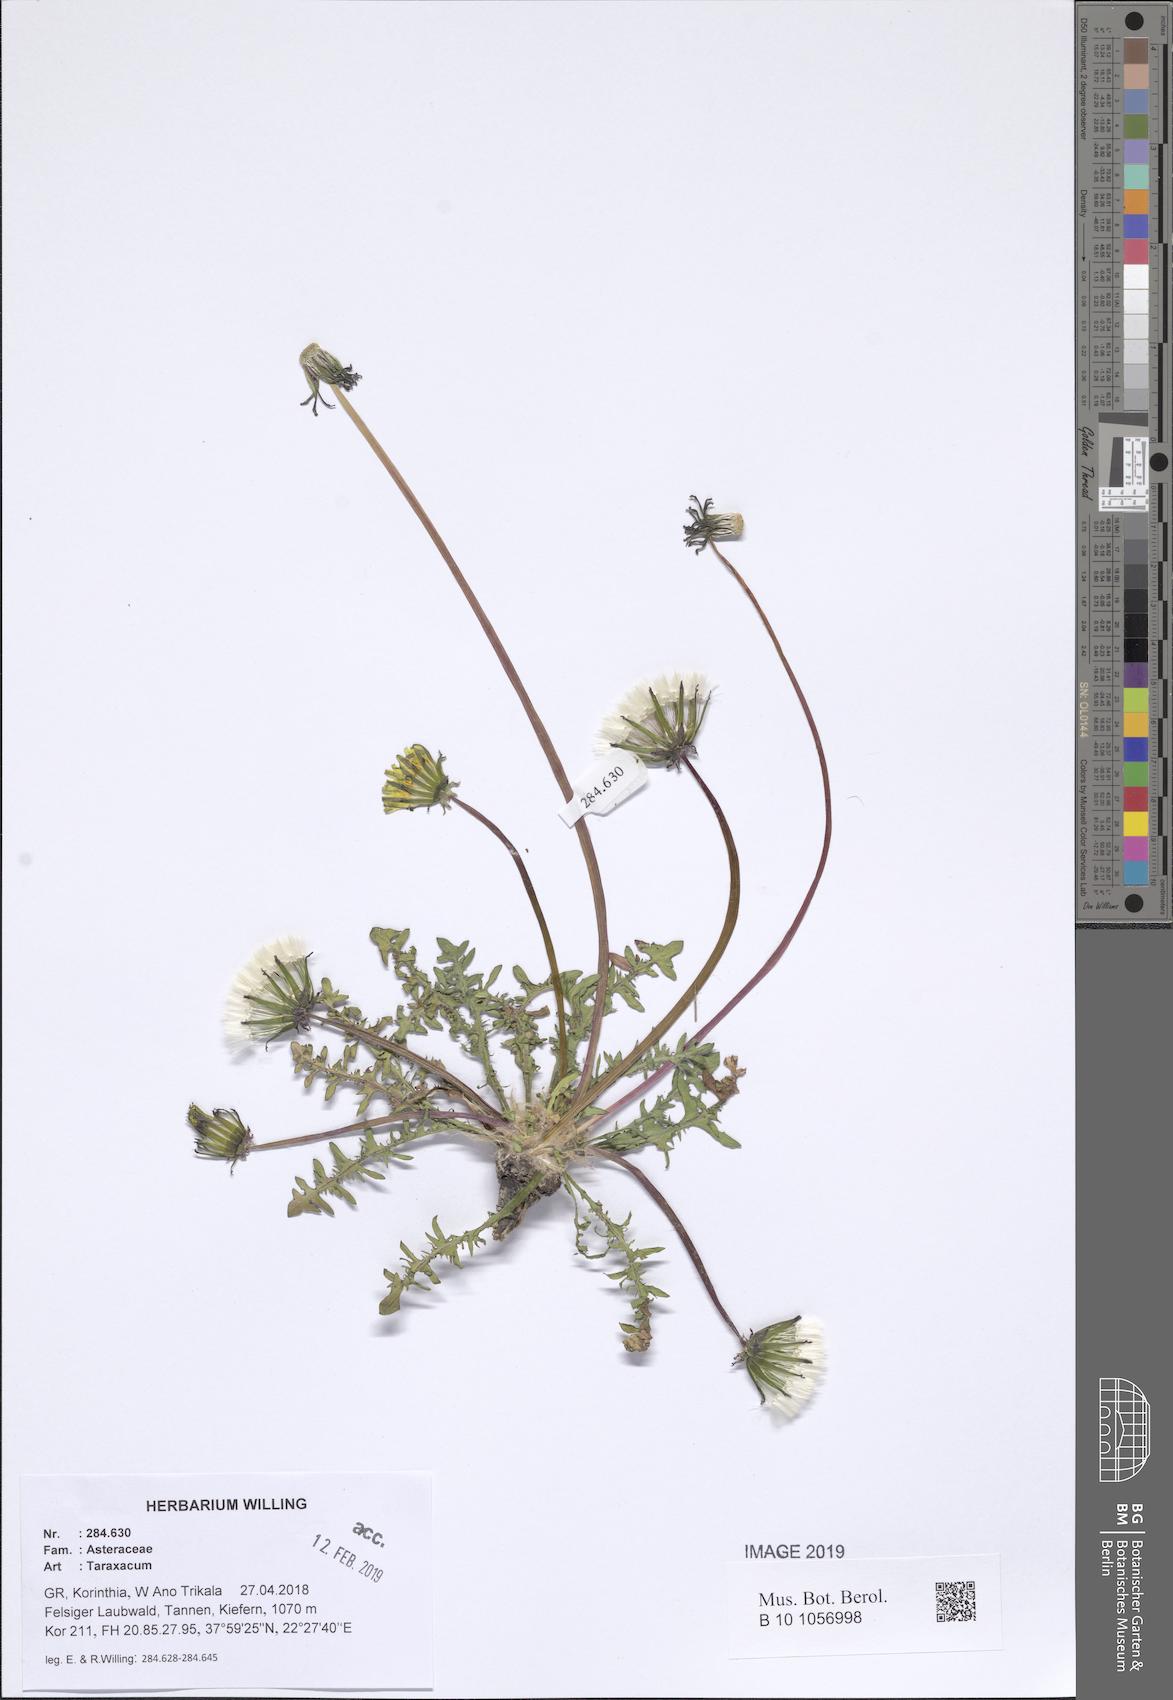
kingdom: Plantae
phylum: Tracheophyta
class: Magnoliopsida
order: Asterales
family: Asteraceae
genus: Taraxacum
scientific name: Taraxacum
